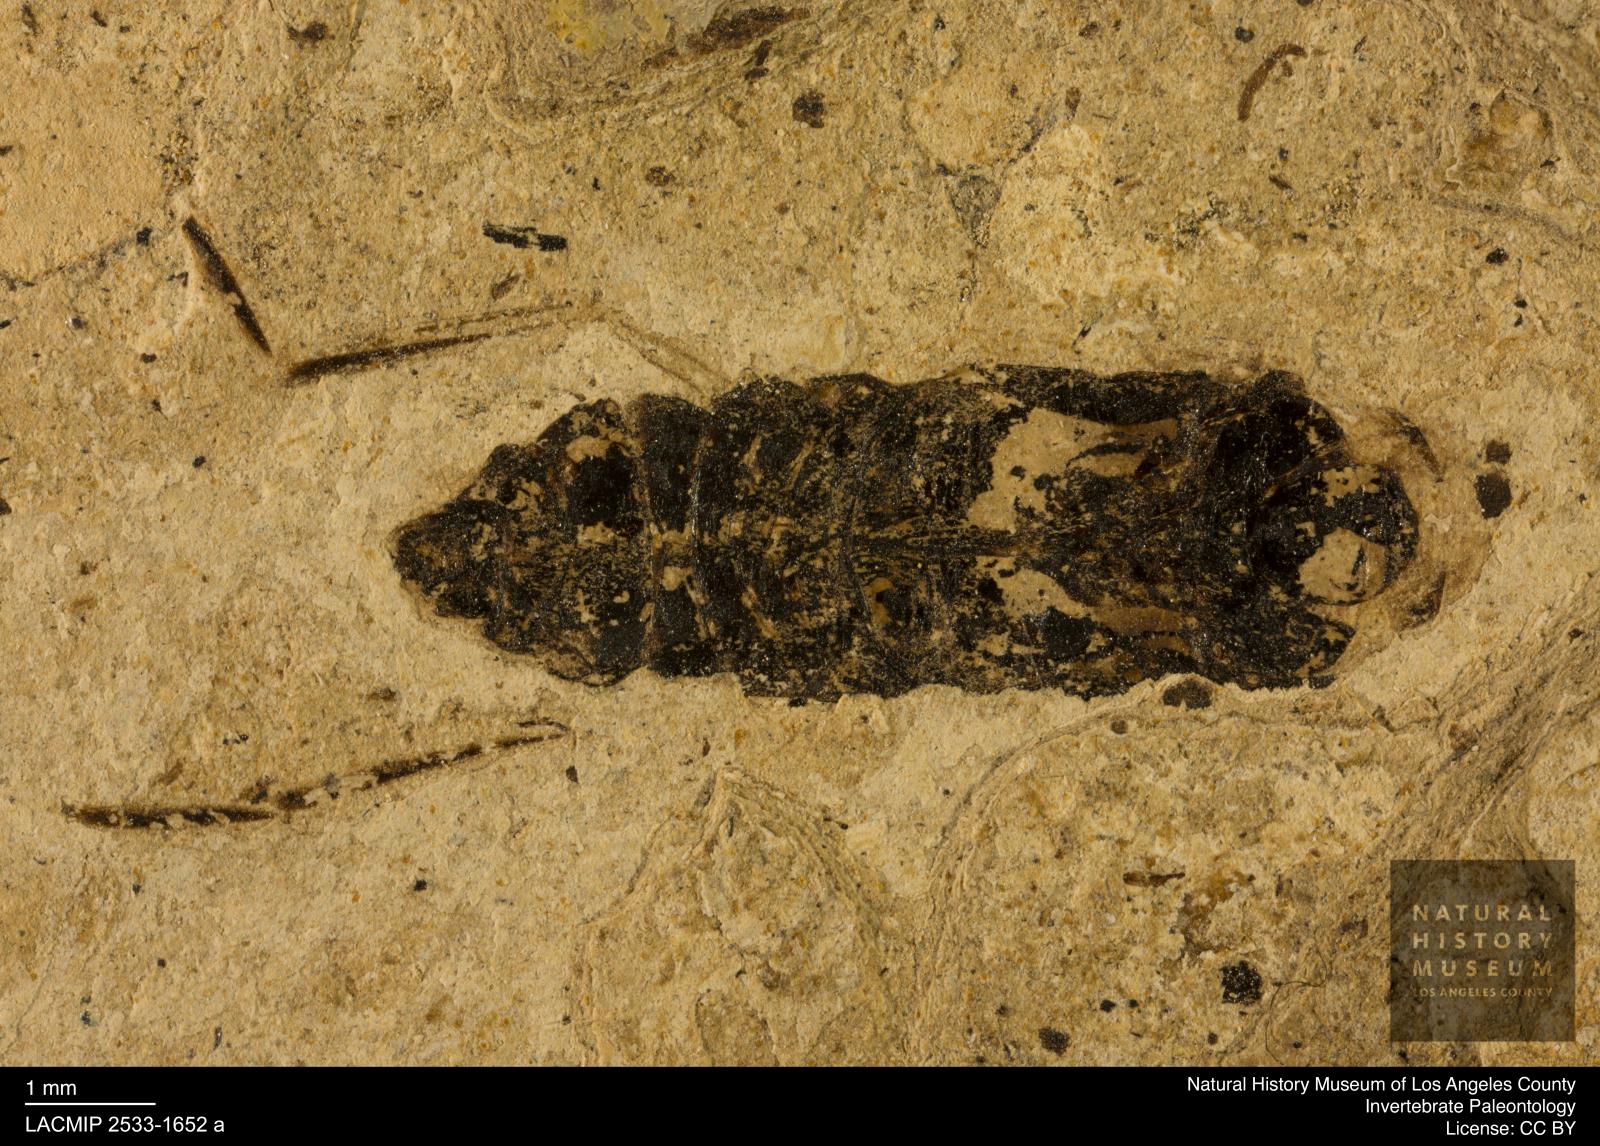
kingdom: Animalia
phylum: Arthropoda
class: Insecta
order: Hemiptera
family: Notonectidae
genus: Notonecta
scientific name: Notonecta
